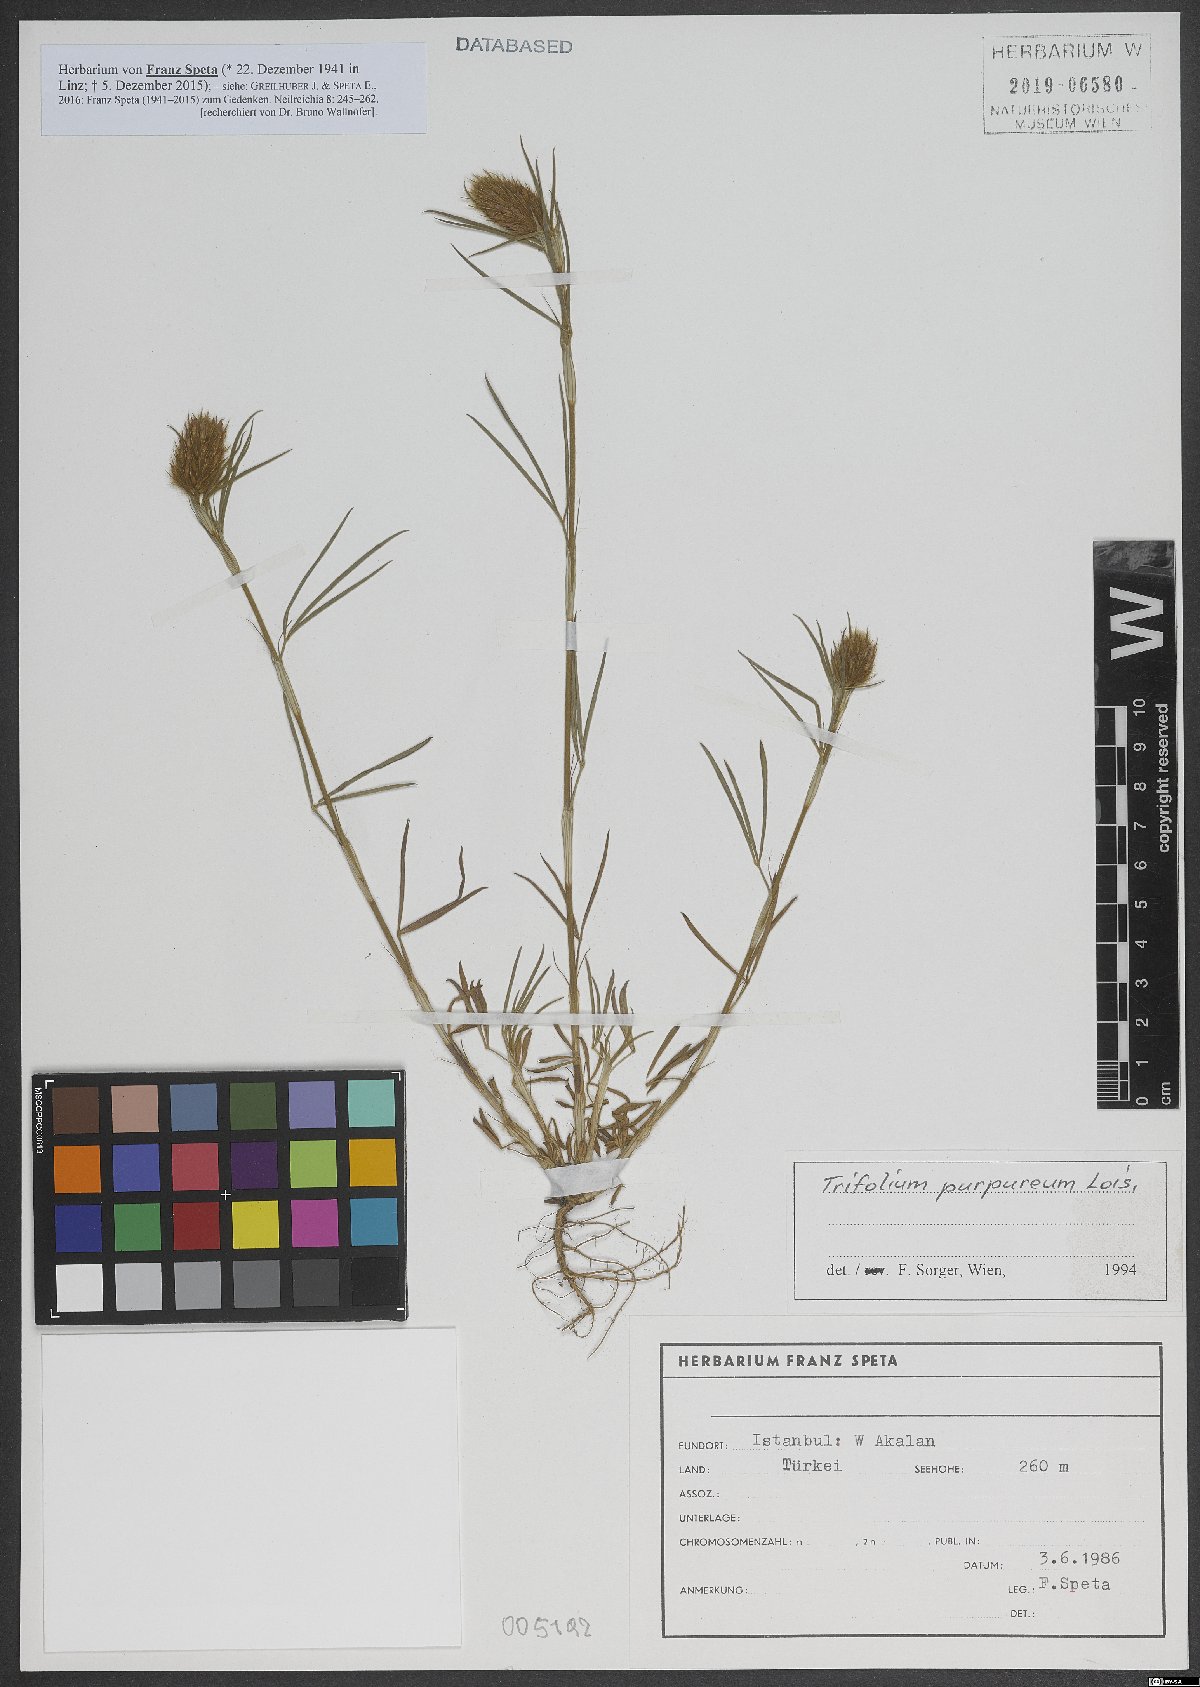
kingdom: Plantae
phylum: Tracheophyta
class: Magnoliopsida
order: Fabales
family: Fabaceae
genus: Trifolium
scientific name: Trifolium purpureum
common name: Purple clover
